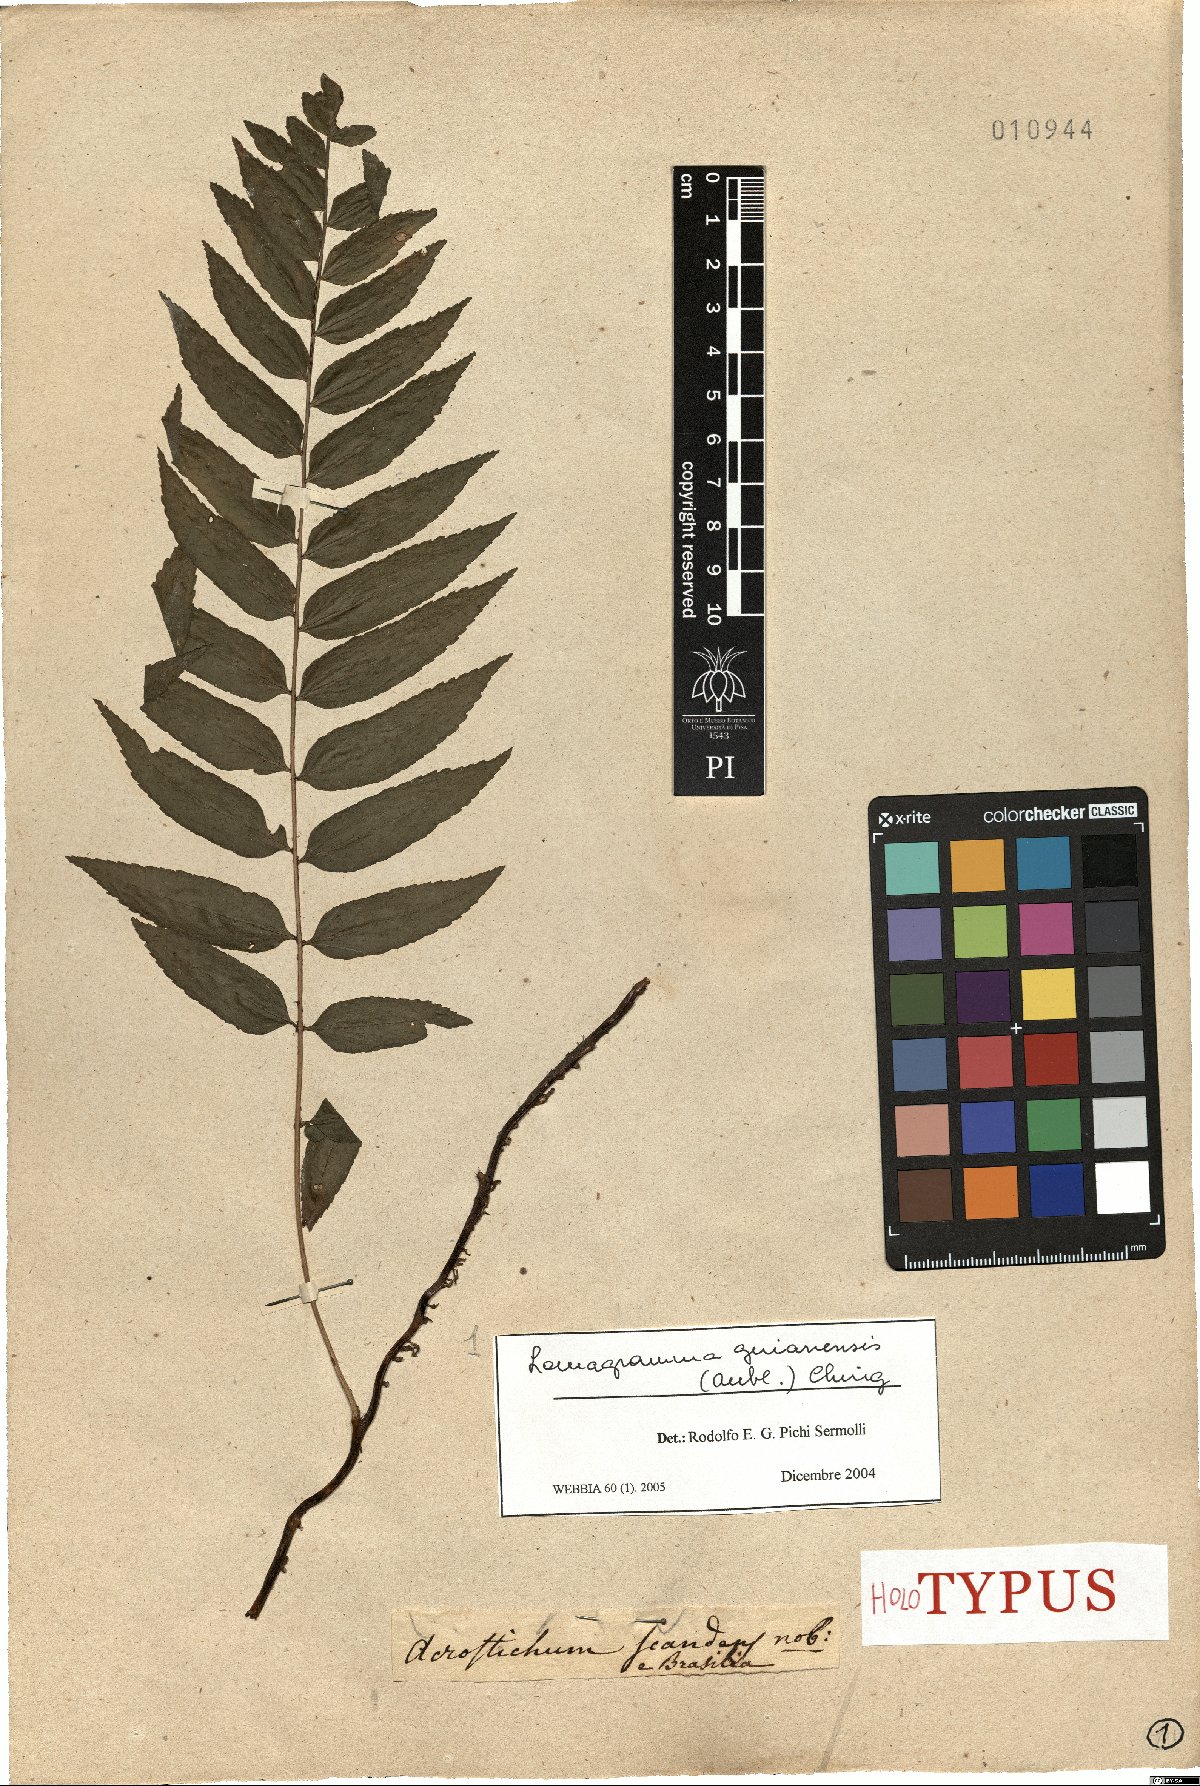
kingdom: Plantae
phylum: Tracheophyta
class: Polypodiopsida
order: Polypodiales
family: Dryopteridaceae
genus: Mickelia
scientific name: Mickelia guianensis
